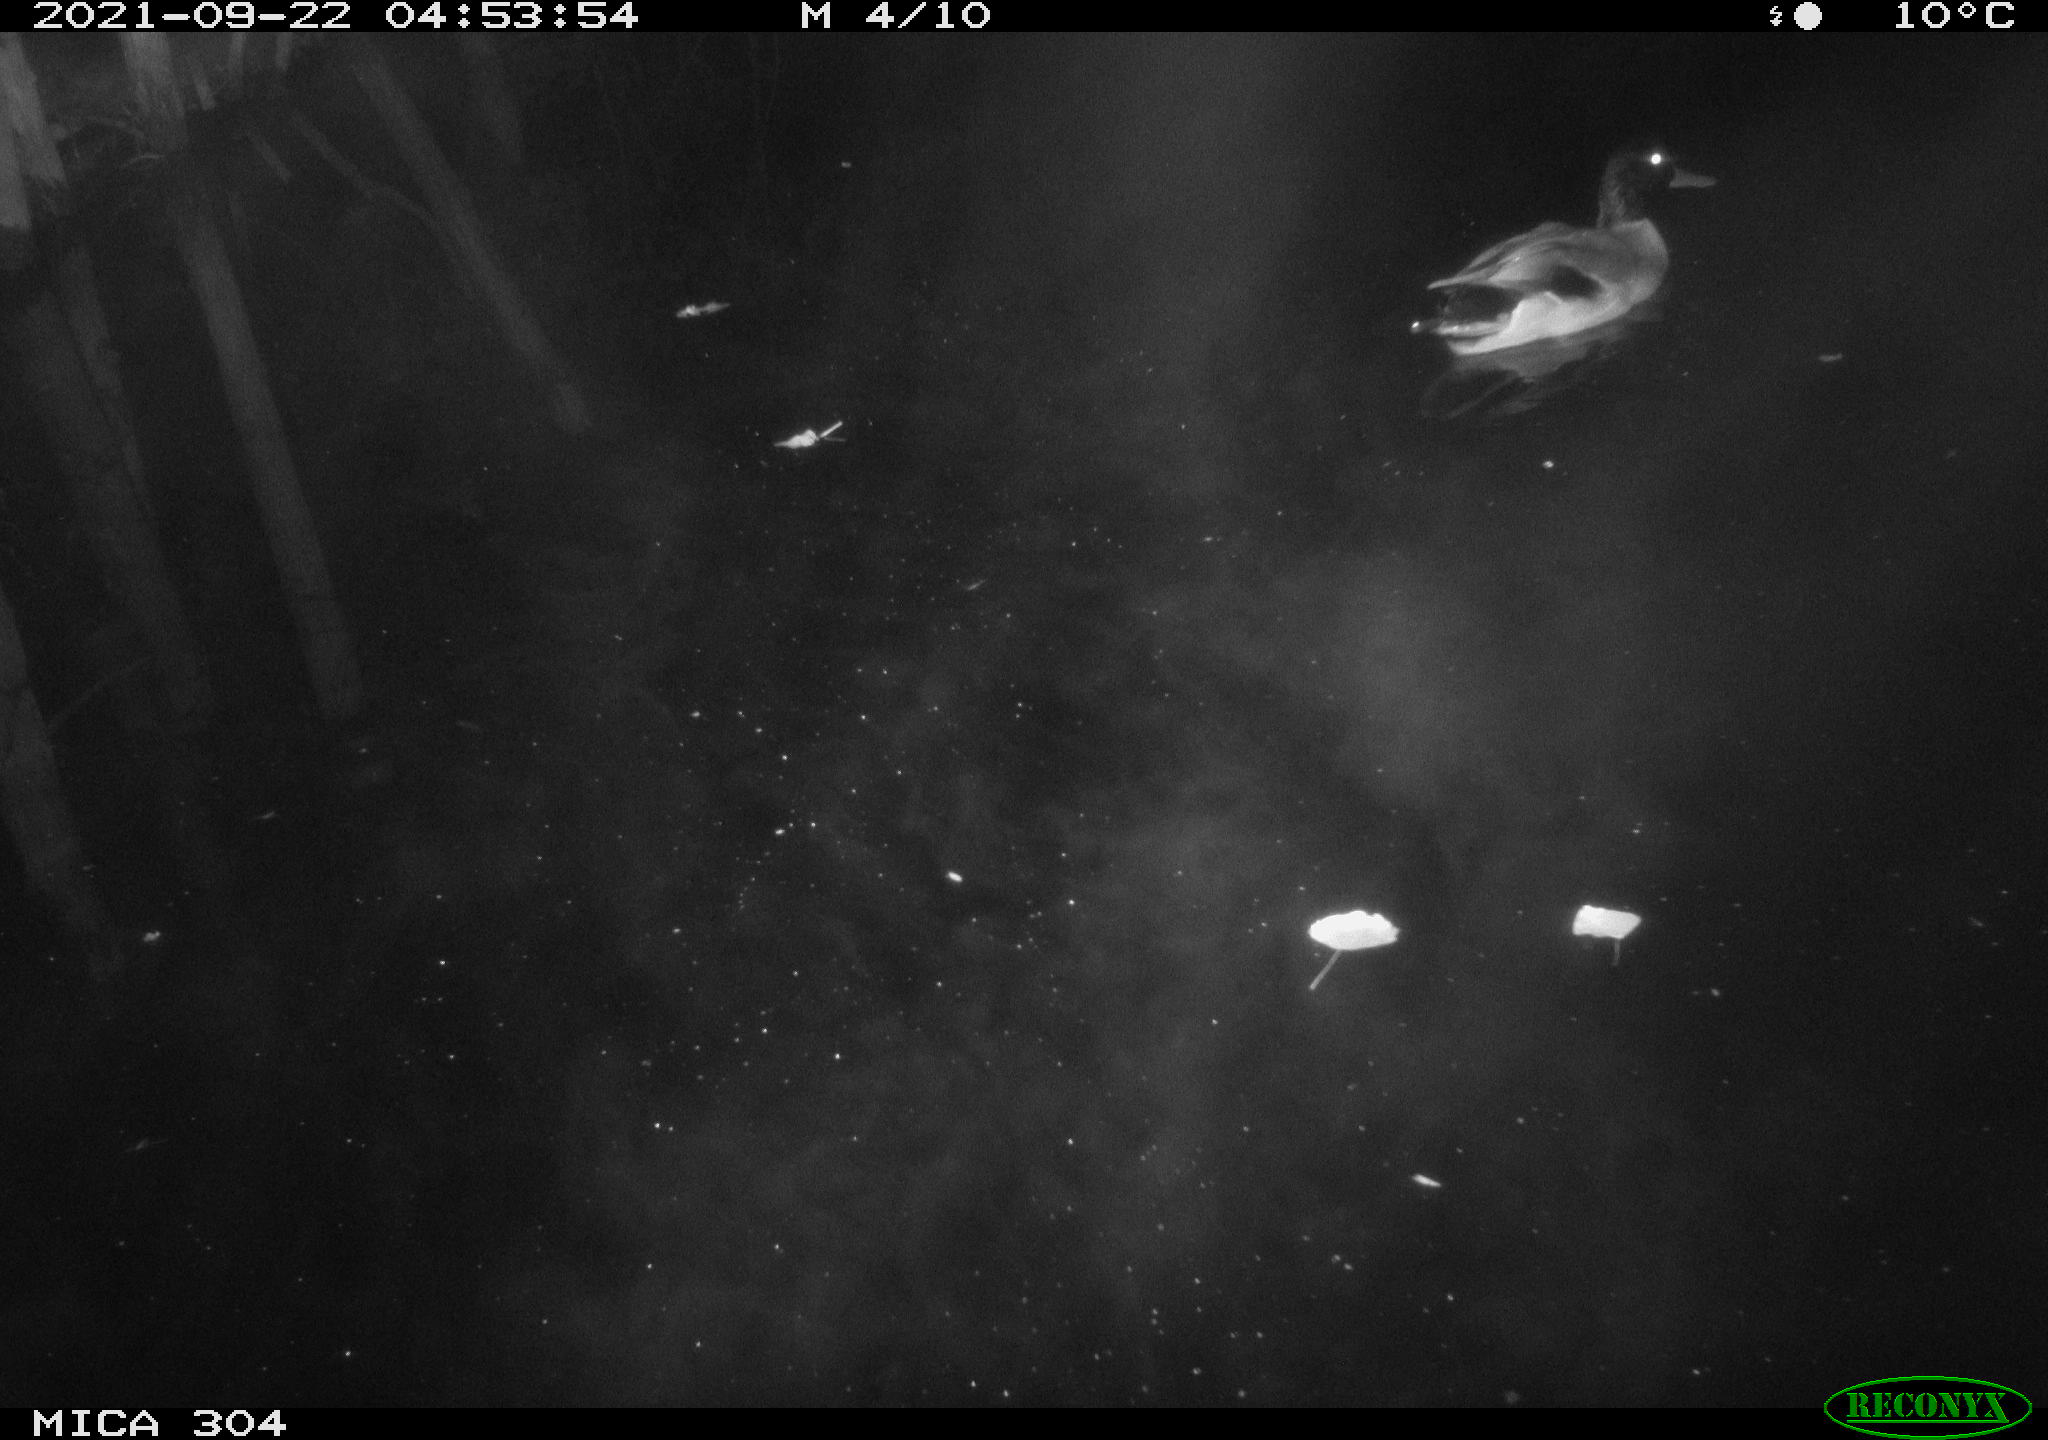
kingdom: Animalia
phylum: Chordata
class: Aves
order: Anseriformes
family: Anatidae
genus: Anas
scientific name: Anas platyrhynchos
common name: Mallard
